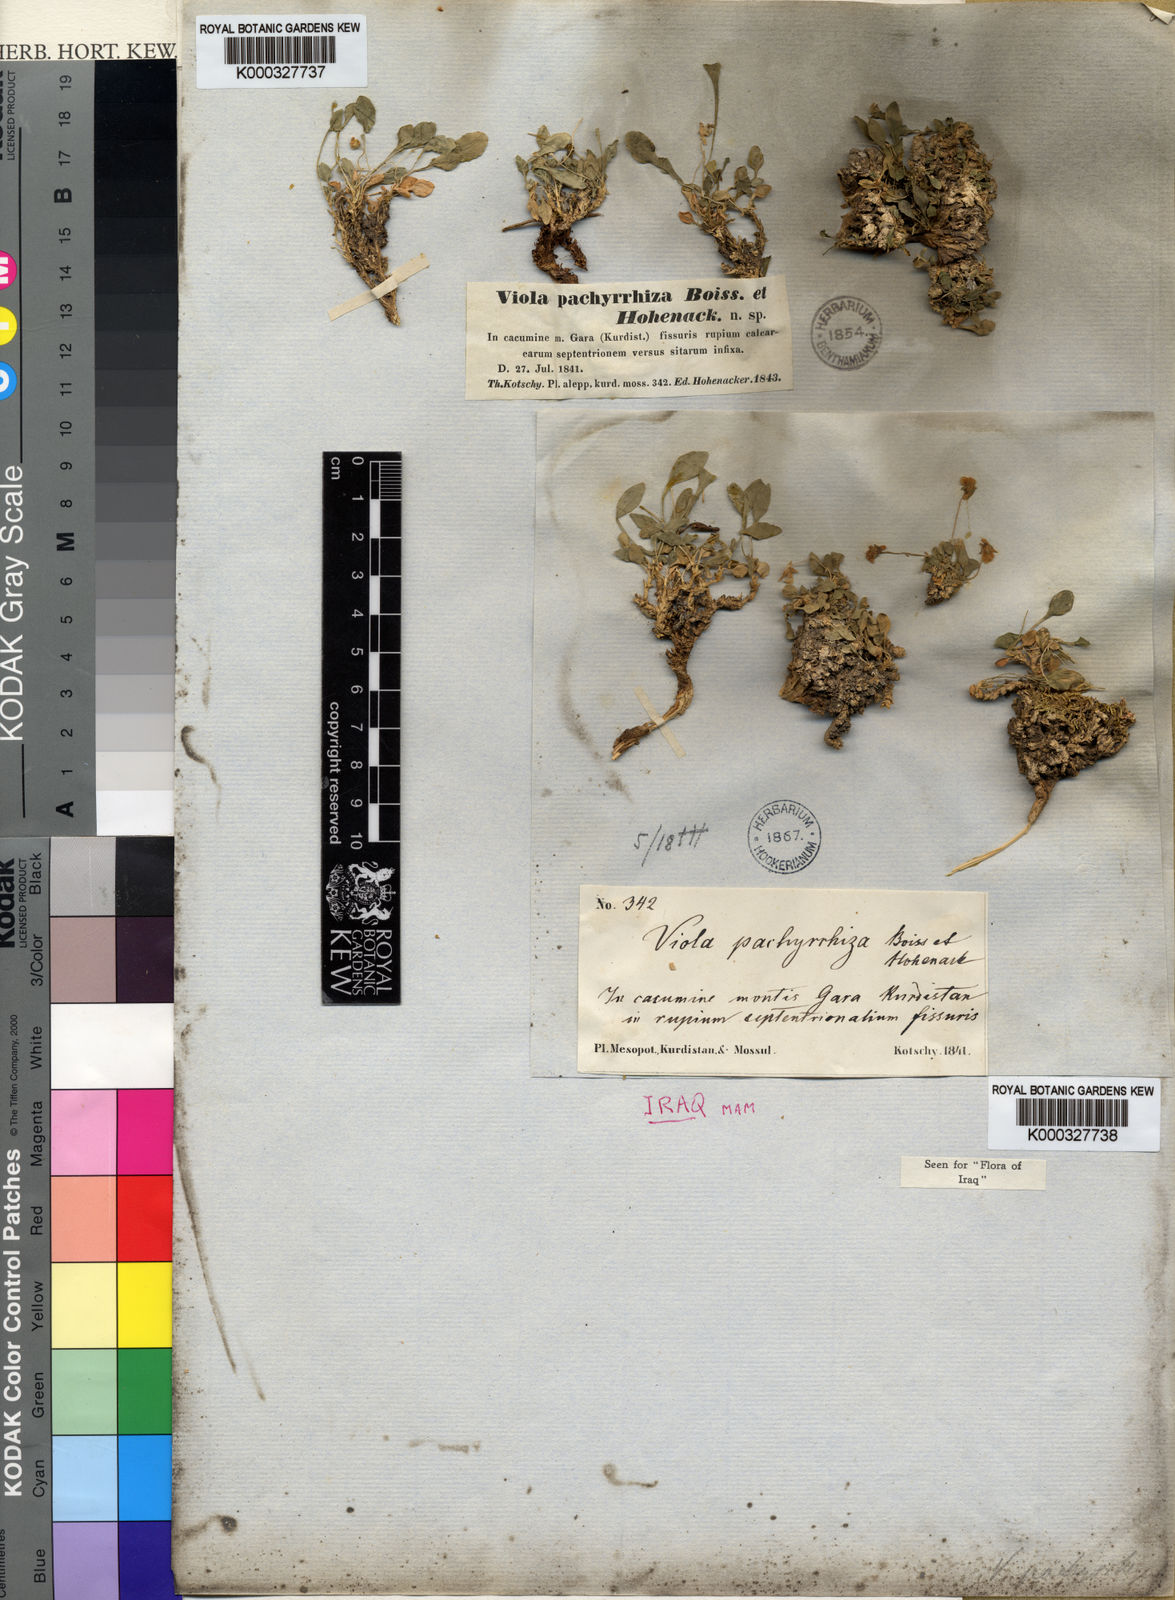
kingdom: Plantae
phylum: Tracheophyta
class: Magnoliopsida
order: Malpighiales
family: Violaceae
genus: Viola
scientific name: Viola pachyrrhiza
